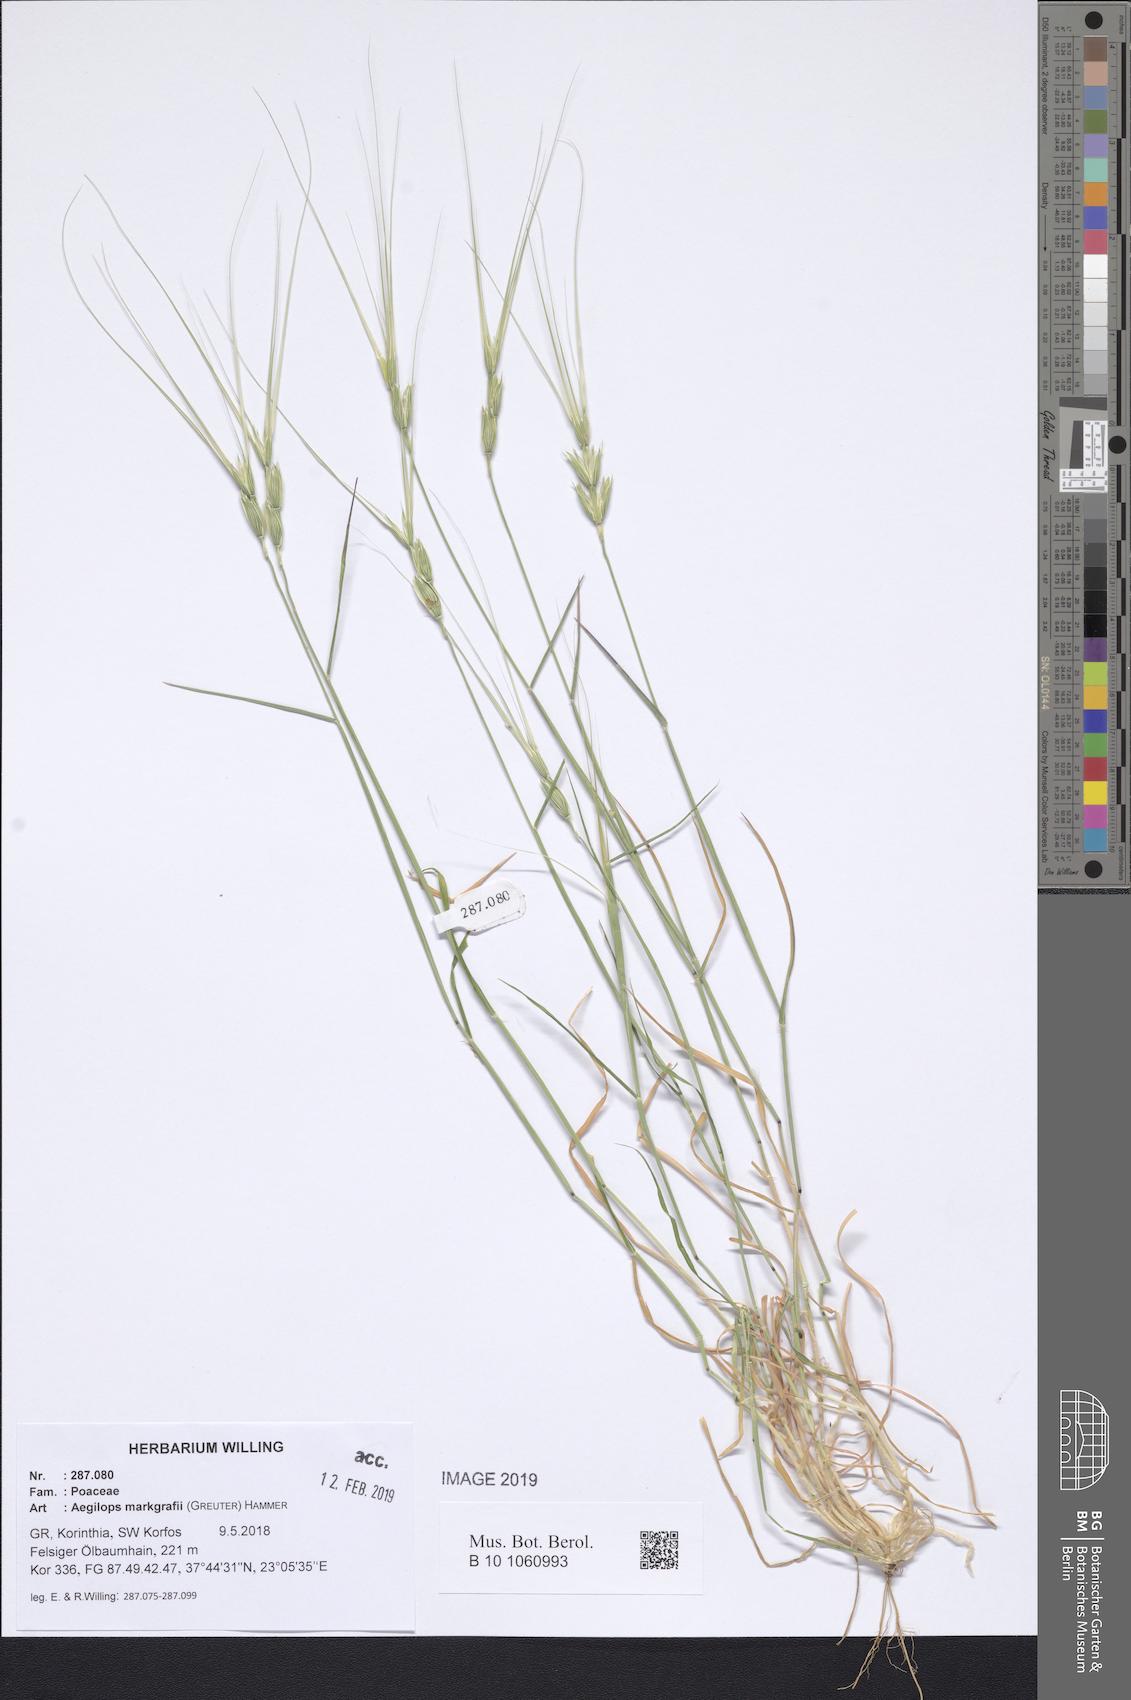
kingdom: Plantae
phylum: Tracheophyta
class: Liliopsida
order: Poales
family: Poaceae
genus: Aegilops
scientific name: Aegilops caudata
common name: Cretan hard-grass
